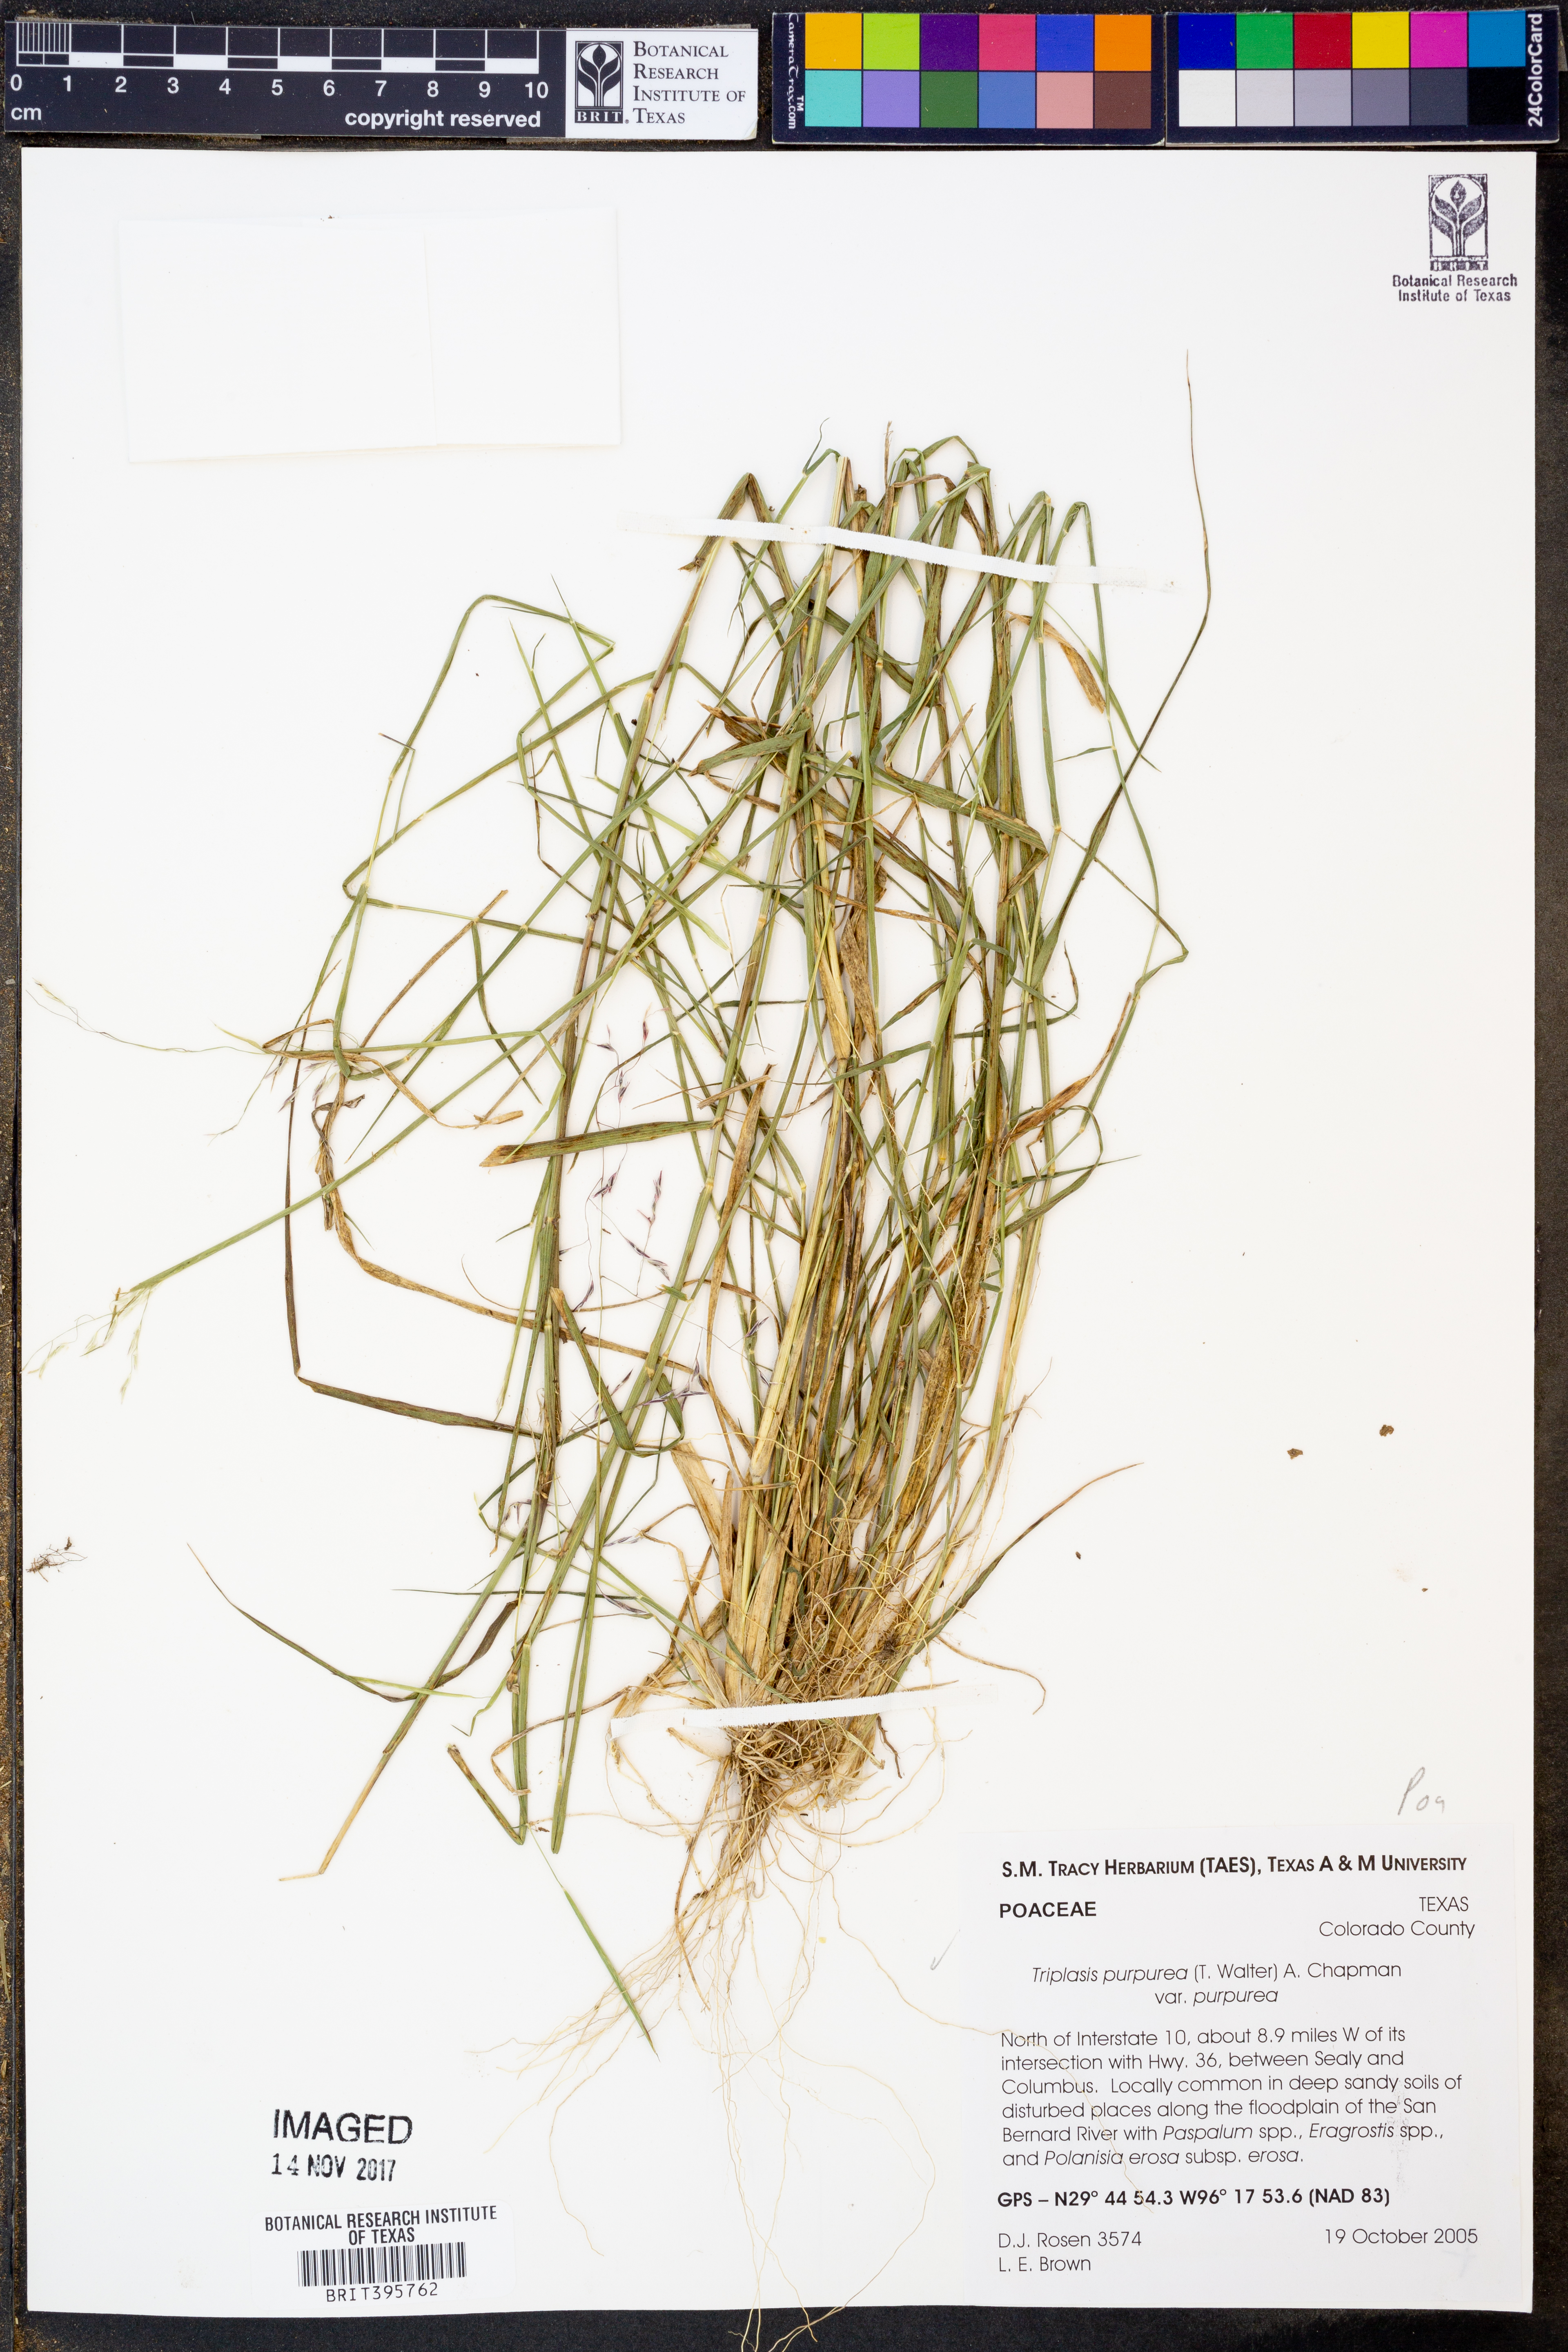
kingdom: Plantae
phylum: Tracheophyta
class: Liliopsida
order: Poales
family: Poaceae
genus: Triplasis
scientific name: Triplasis purpurea
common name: Purple sand grass
